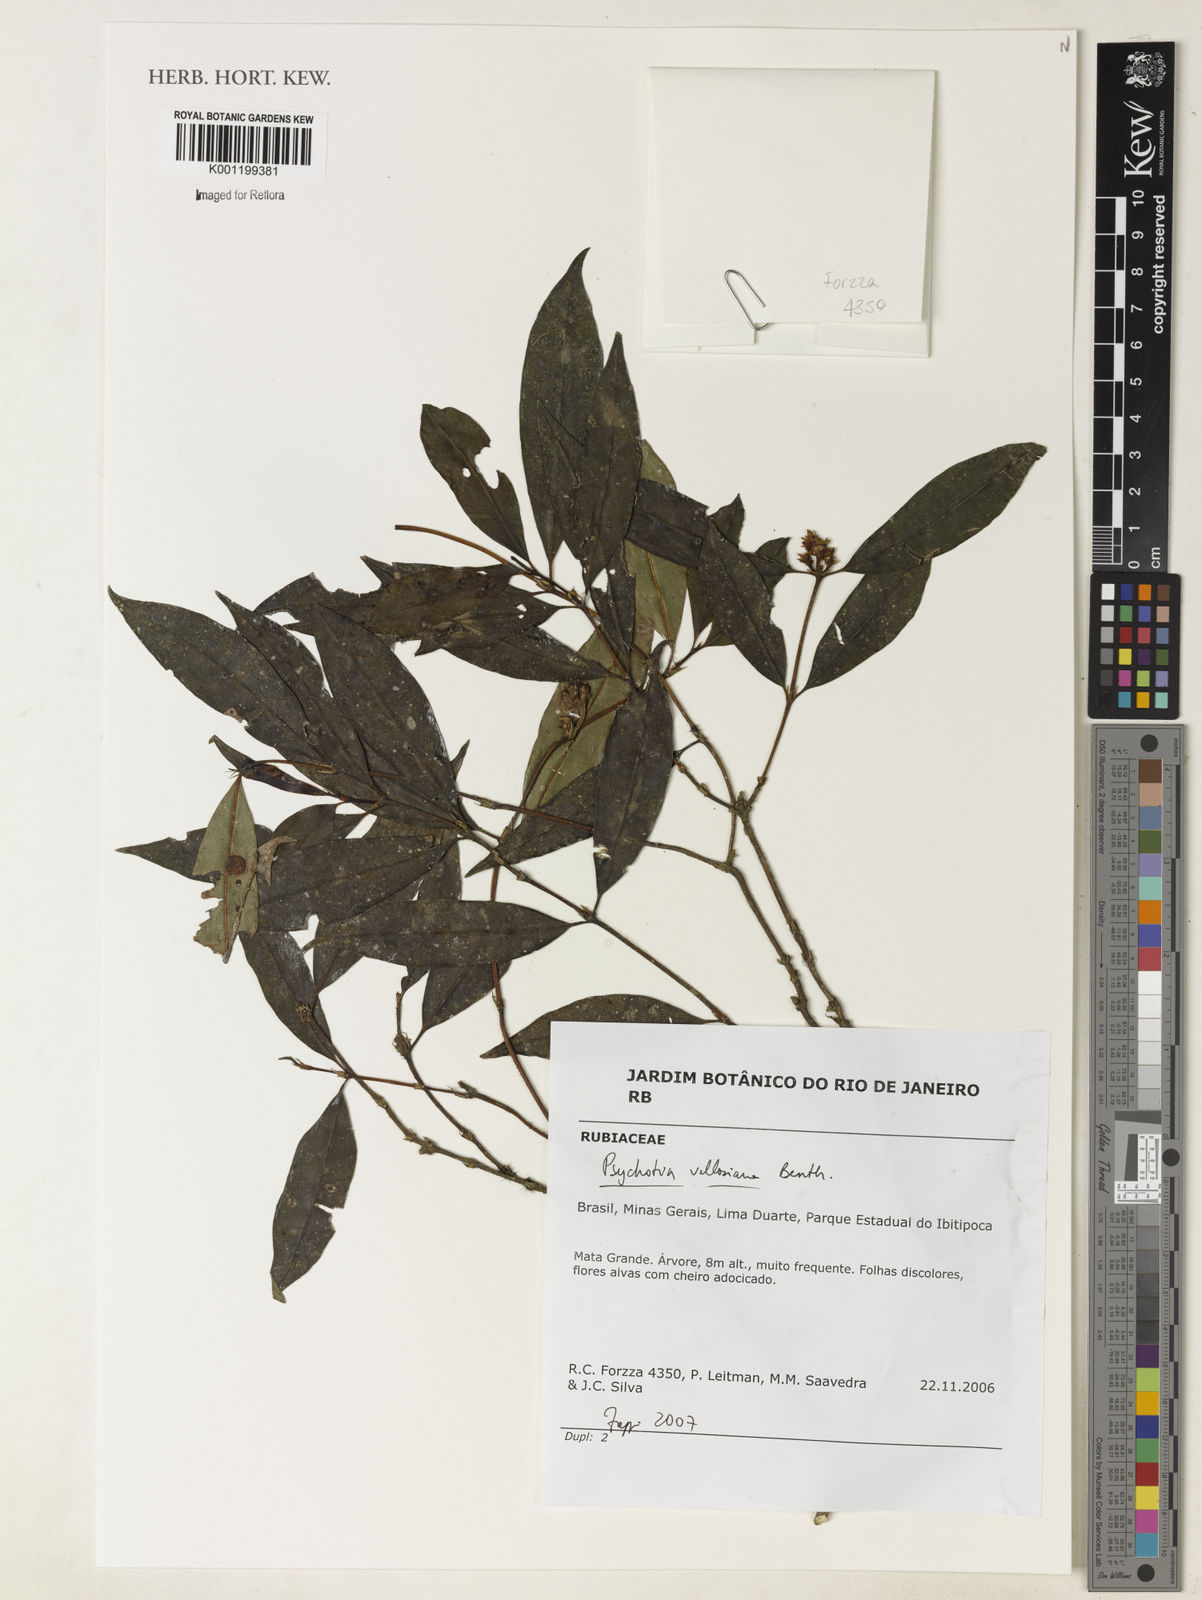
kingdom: Plantae
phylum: Tracheophyta
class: Magnoliopsida
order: Gentianales
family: Rubiaceae
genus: Palicourea
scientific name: Palicourea sessilis
